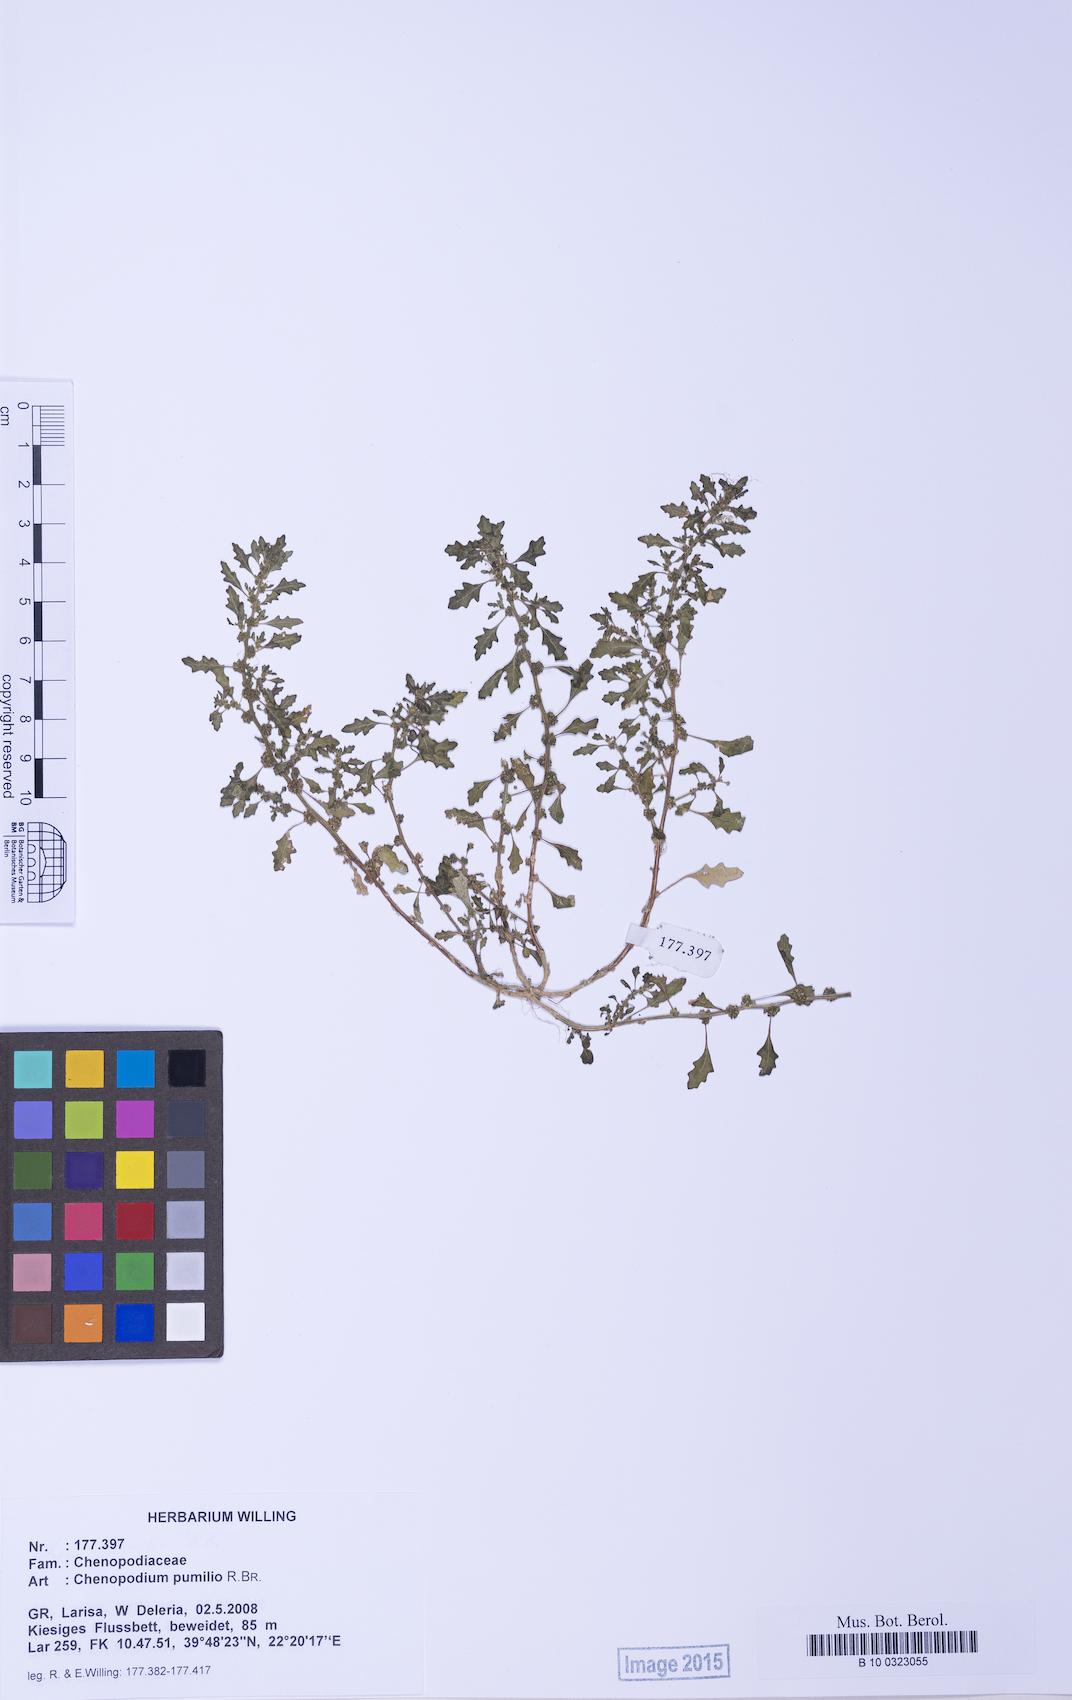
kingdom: Plantae
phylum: Tracheophyta
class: Magnoliopsida
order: Caryophyllales
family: Amaranthaceae
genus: Dysphania
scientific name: Dysphania pumilio
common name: Clammy goosefoot
